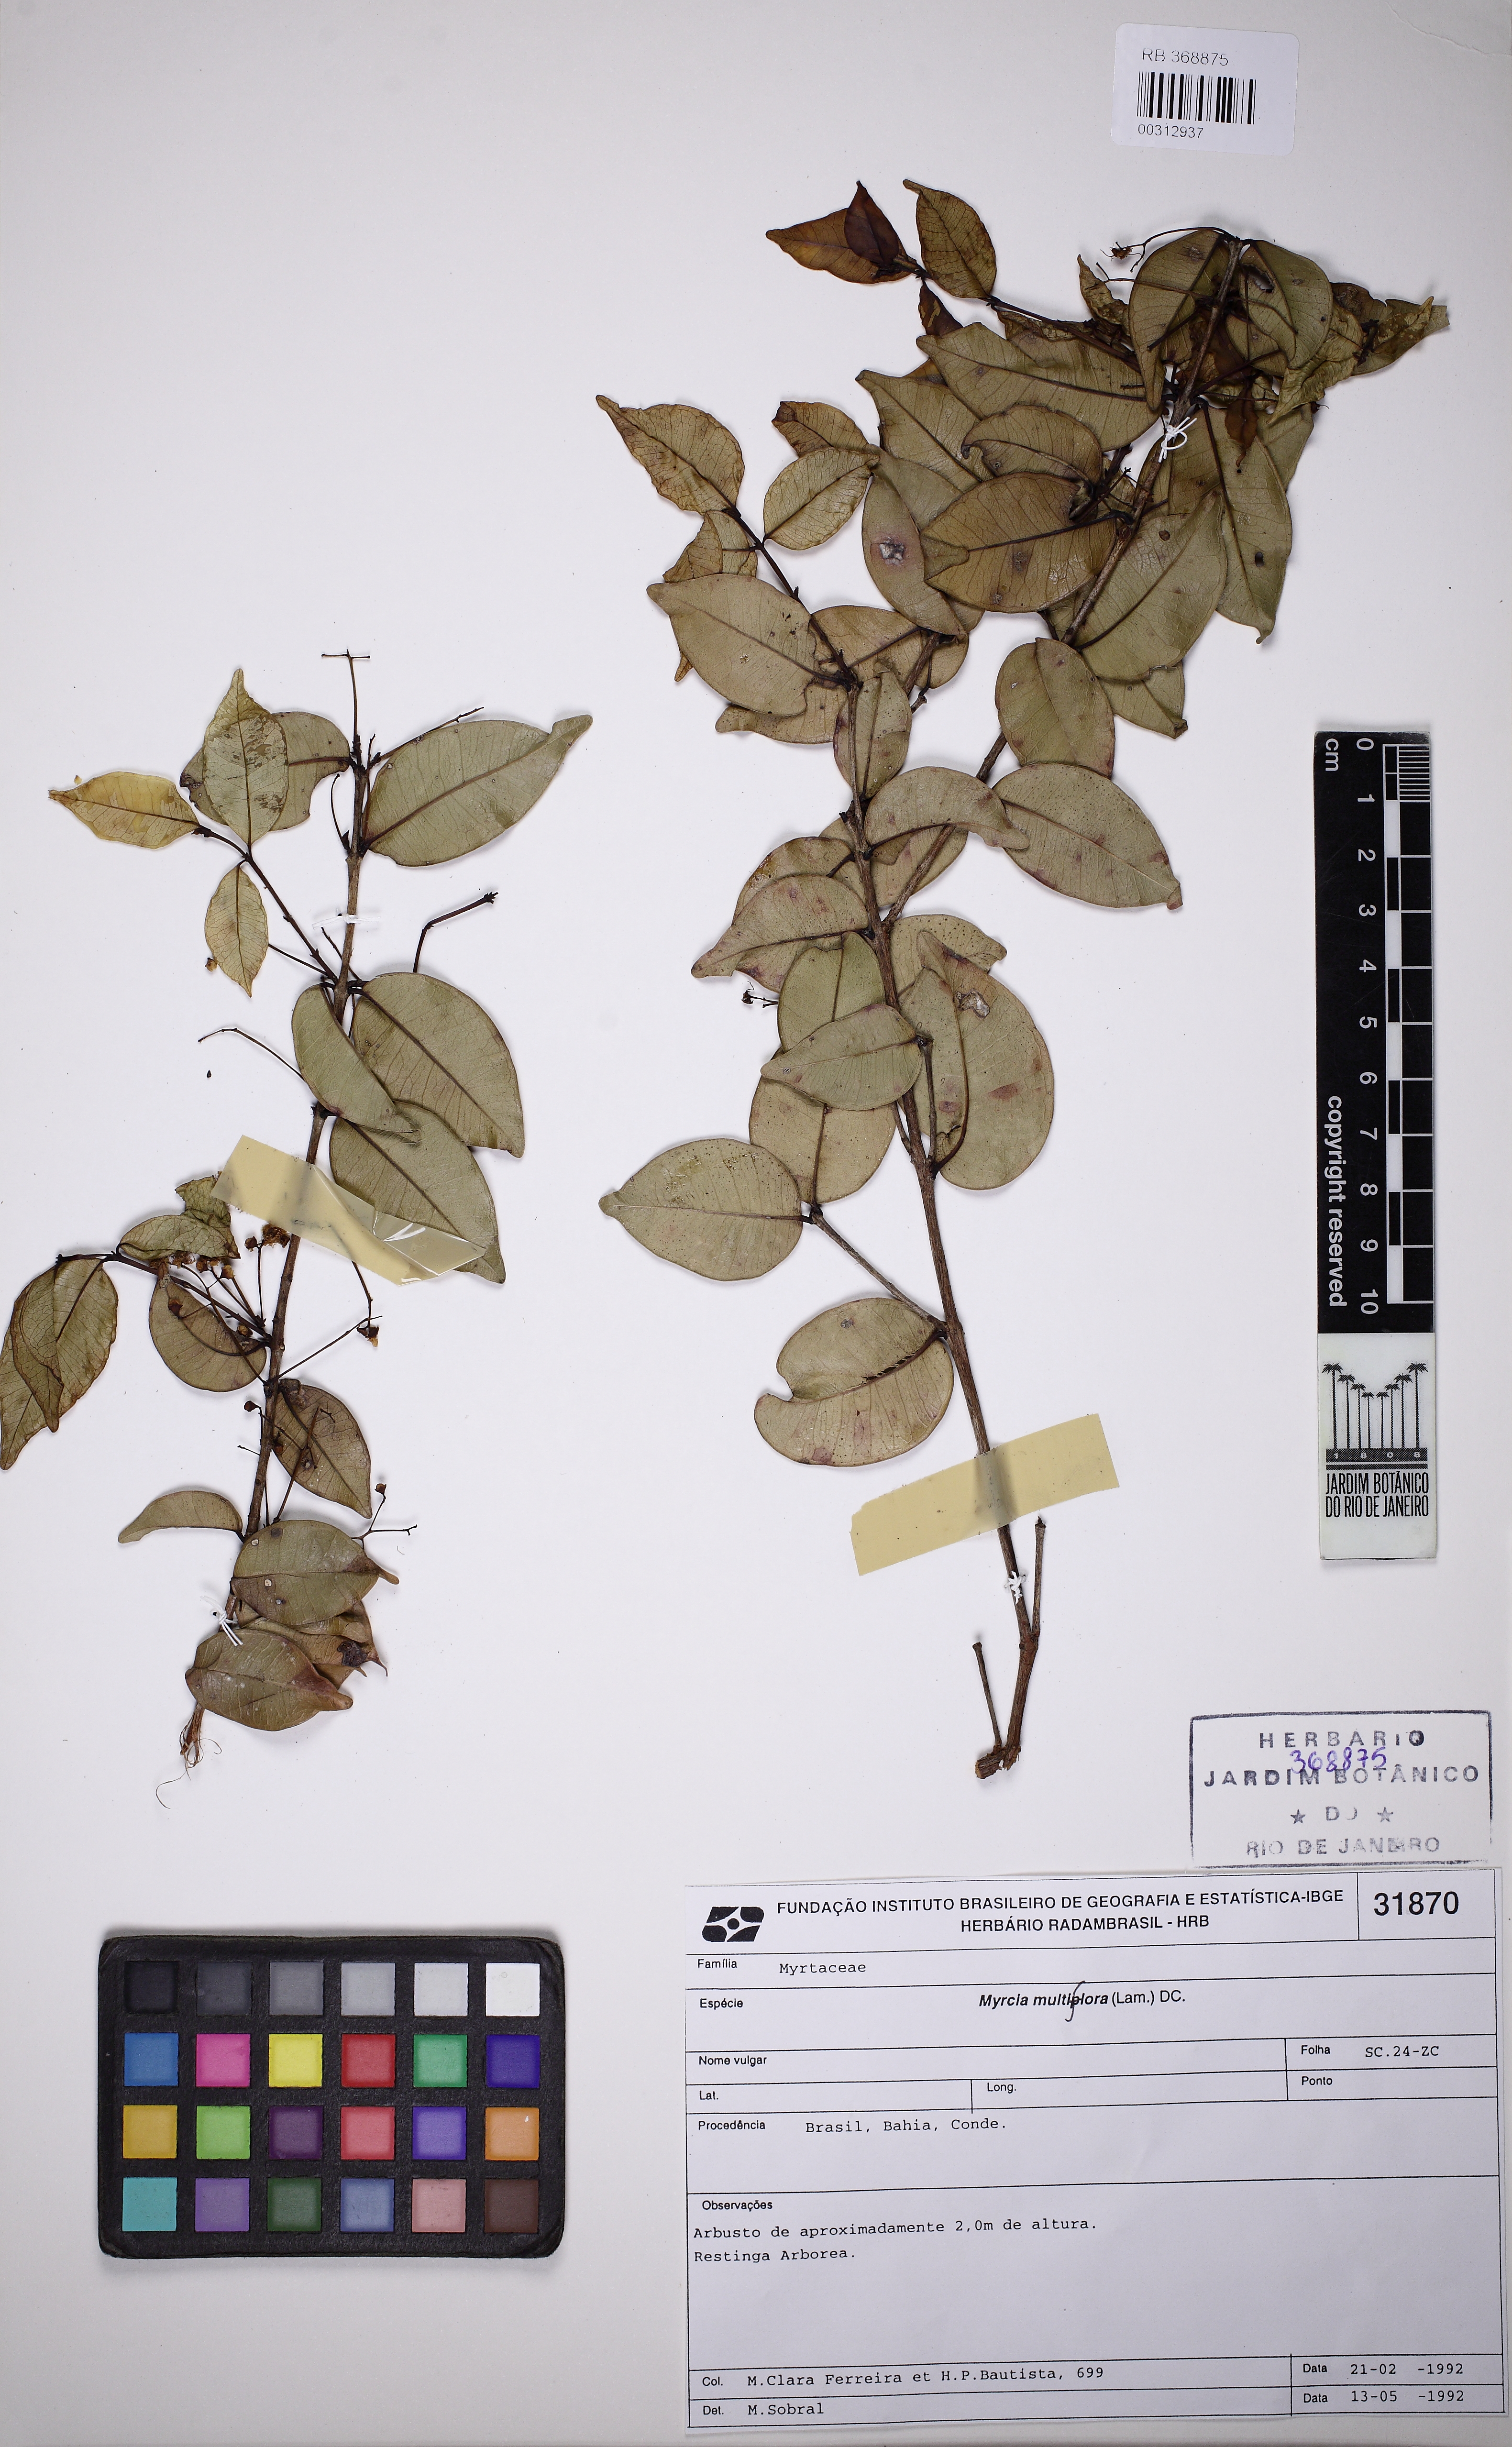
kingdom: Plantae
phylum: Tracheophyta
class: Magnoliopsida
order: Myrtales
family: Myrtaceae
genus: Myrcia
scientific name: Myrcia multiflora
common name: Pedra hume
